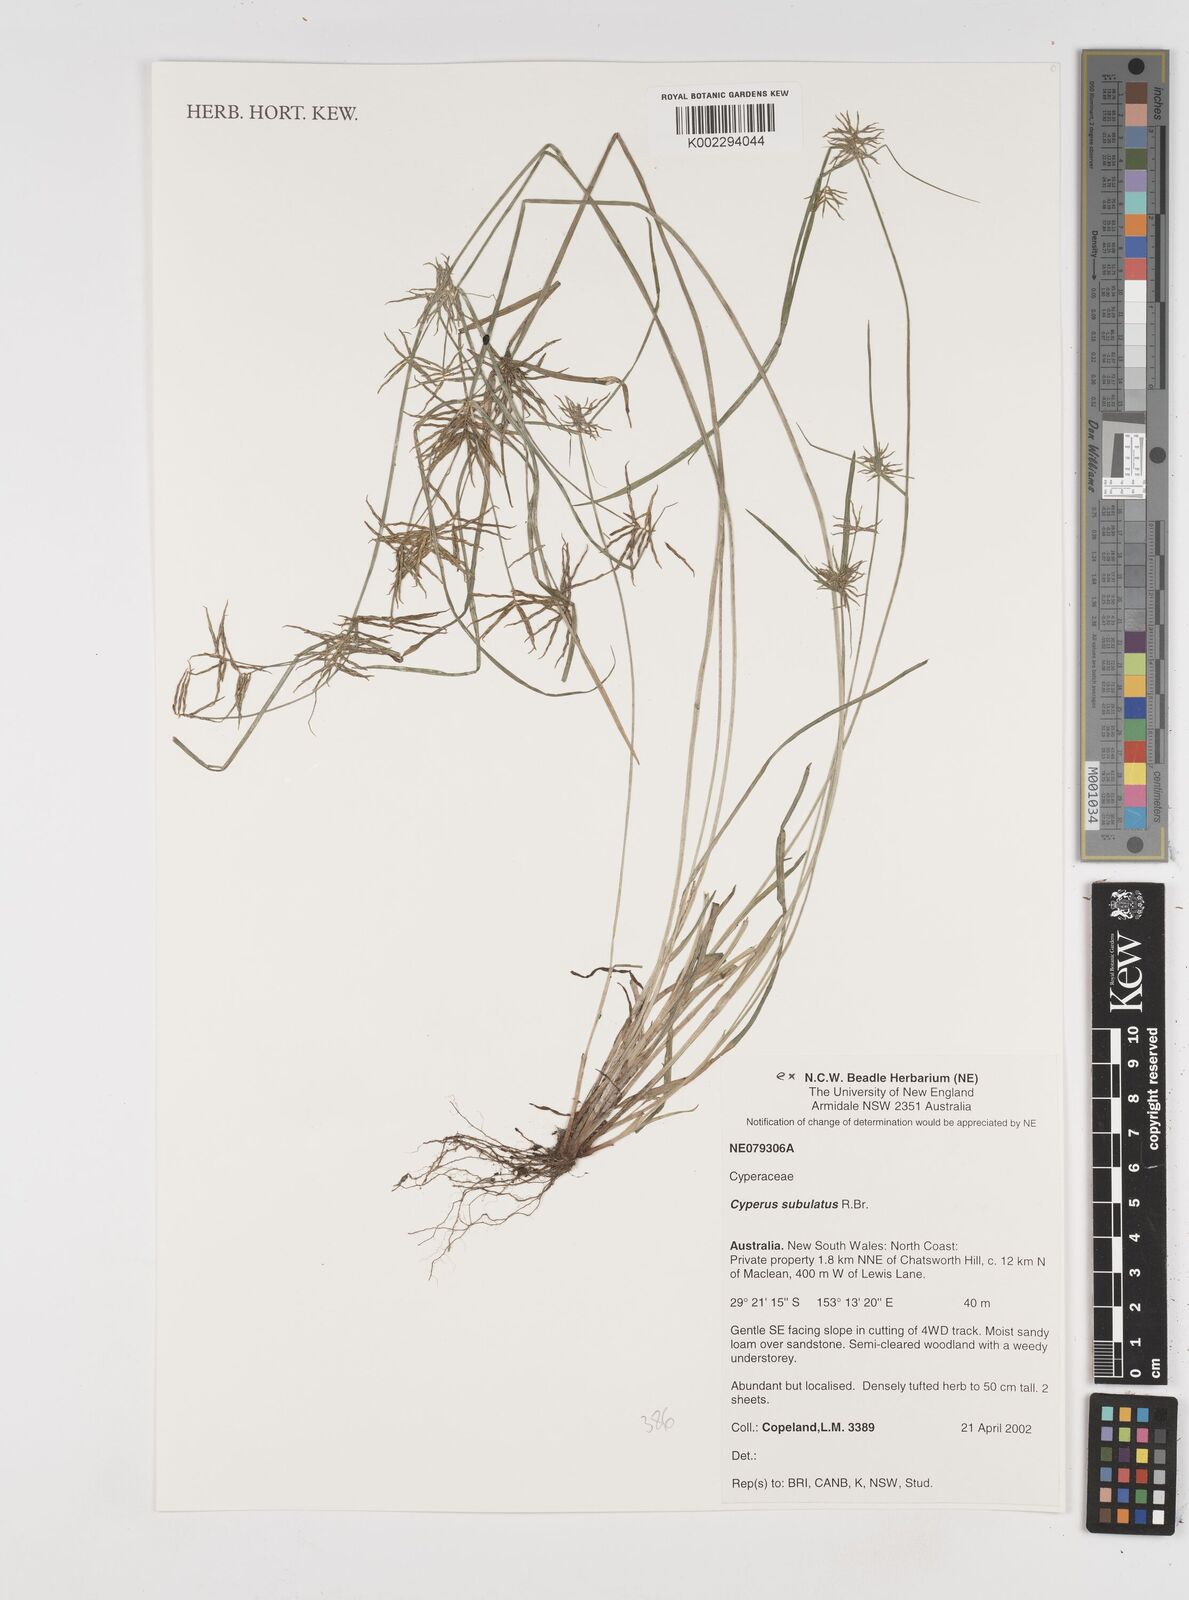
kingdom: Plantae
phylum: Tracheophyta
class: Liliopsida
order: Poales
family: Cyperaceae
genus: Cyperus
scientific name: Cyperus subulatus
